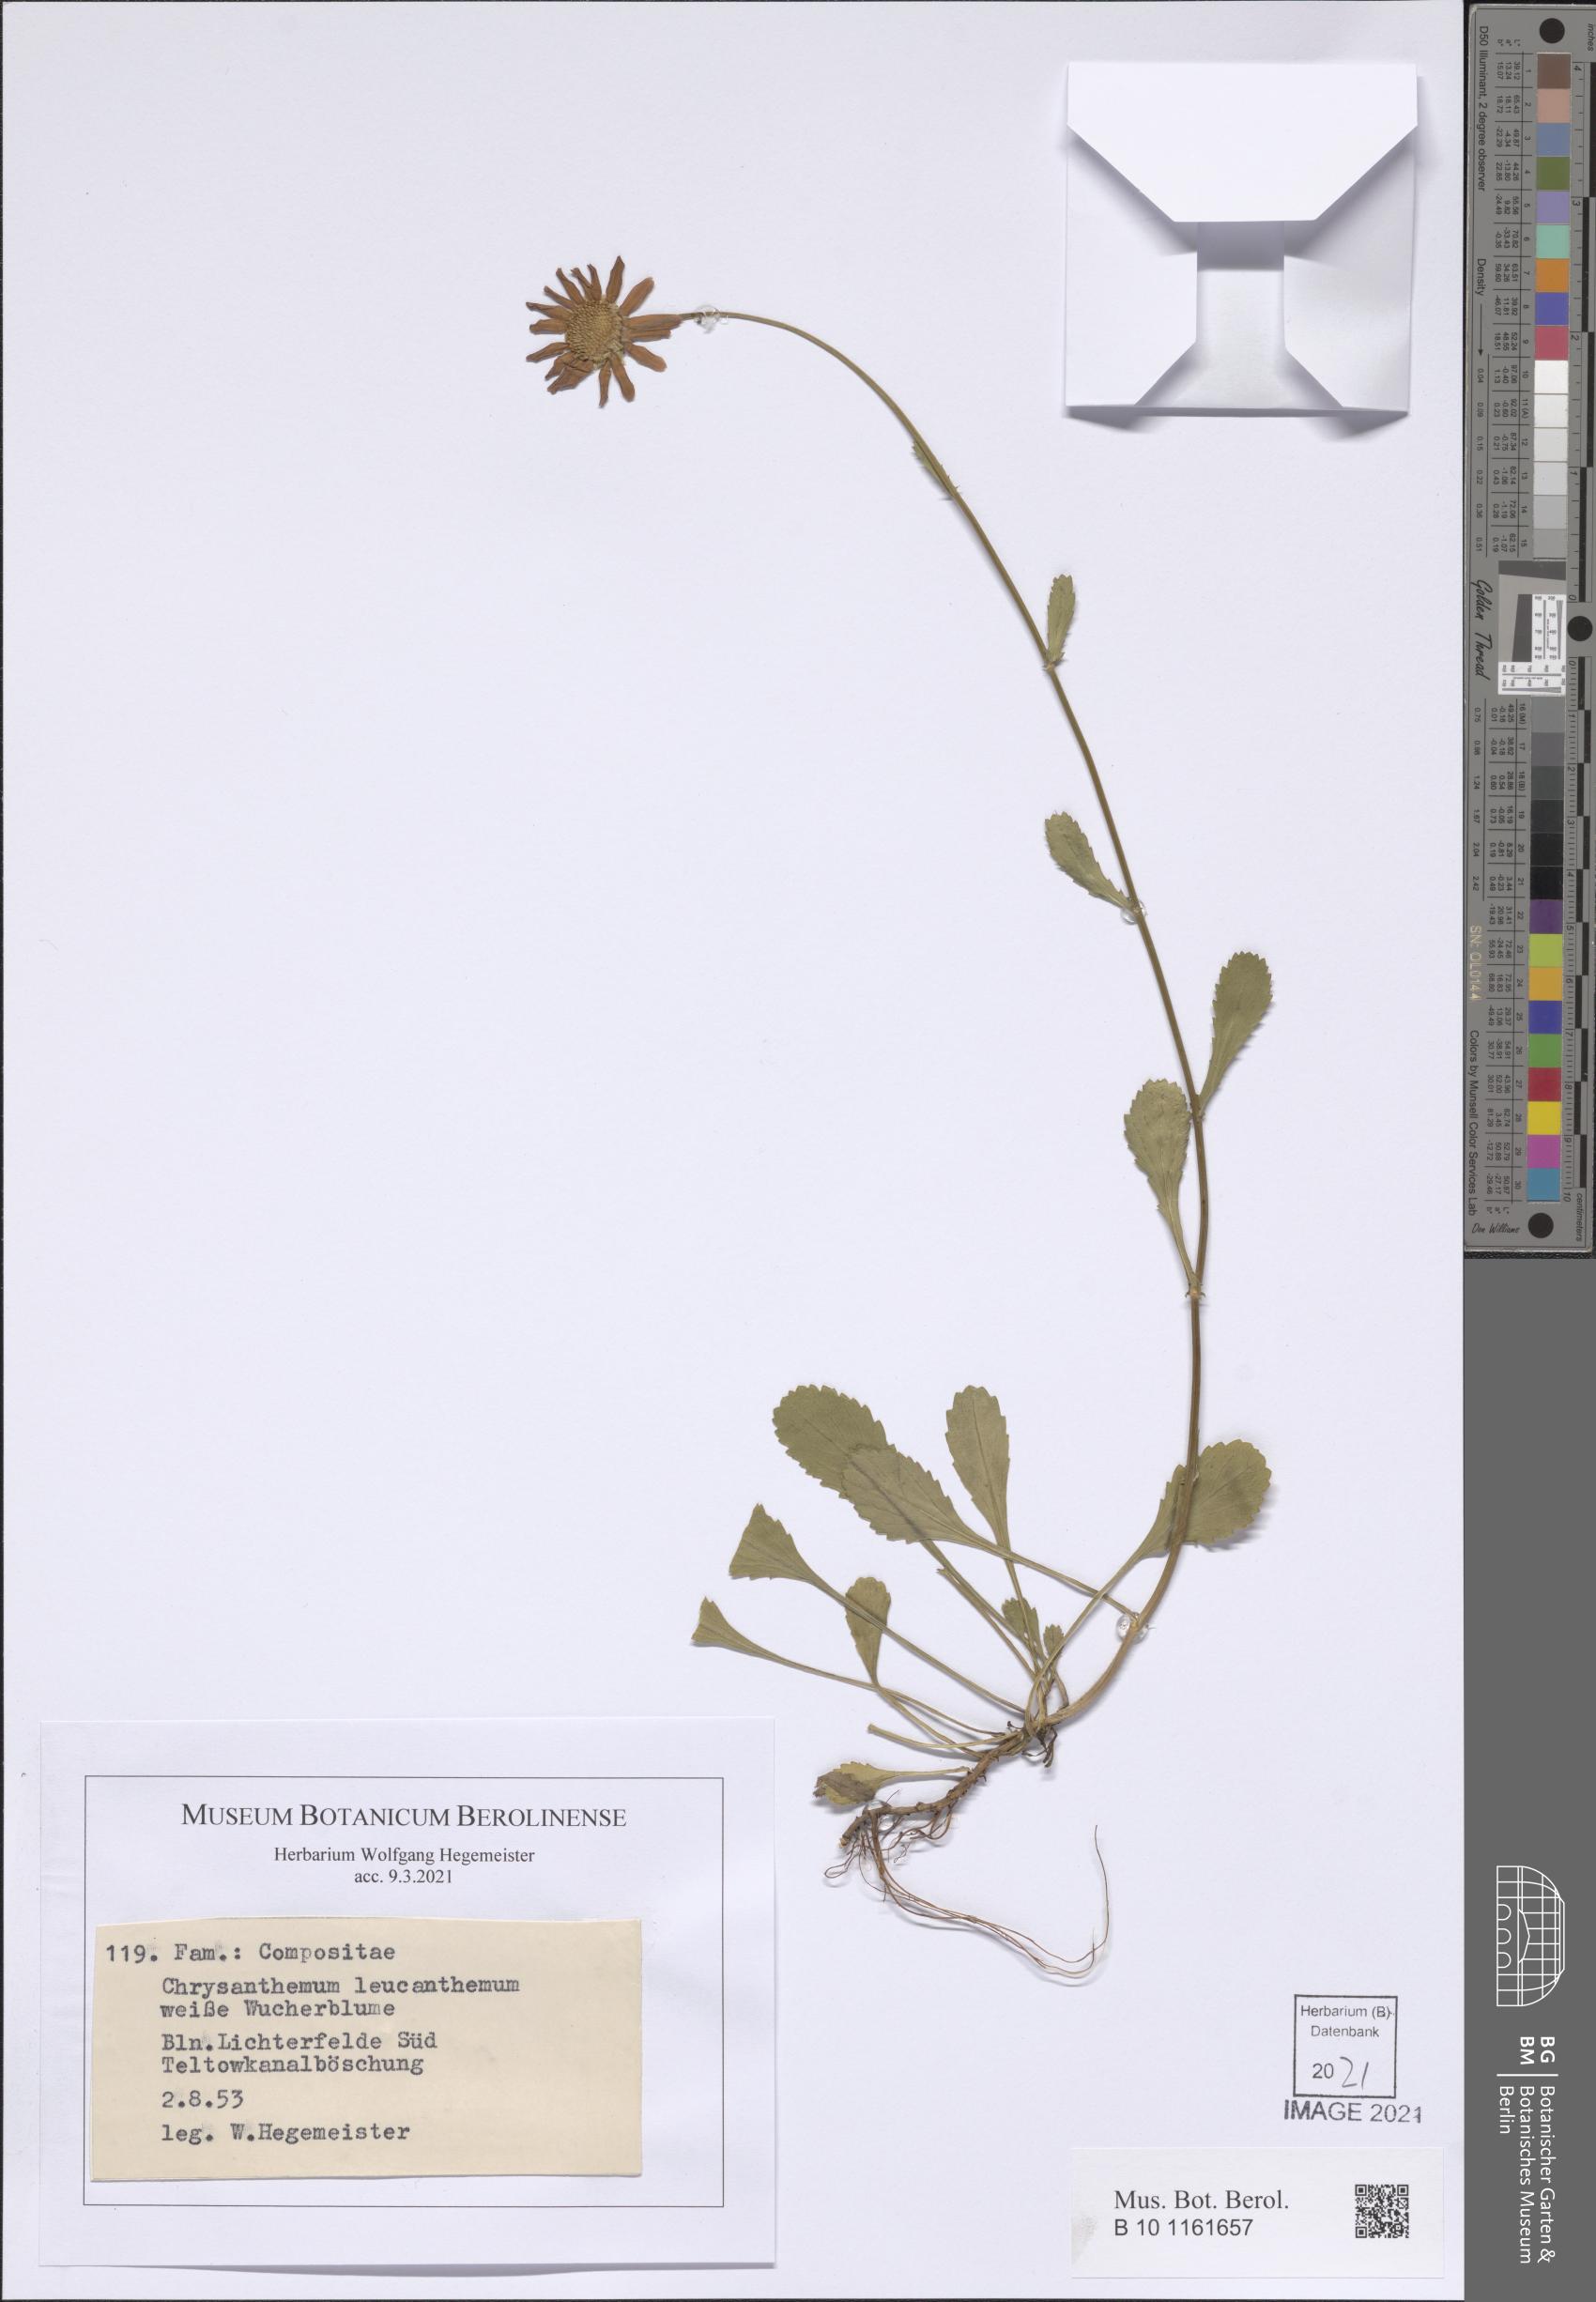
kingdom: Plantae
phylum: Tracheophyta
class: Magnoliopsida
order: Asterales
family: Asteraceae
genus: Leucanthemum
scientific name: Leucanthemum vulgare
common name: Oxeye daisy
